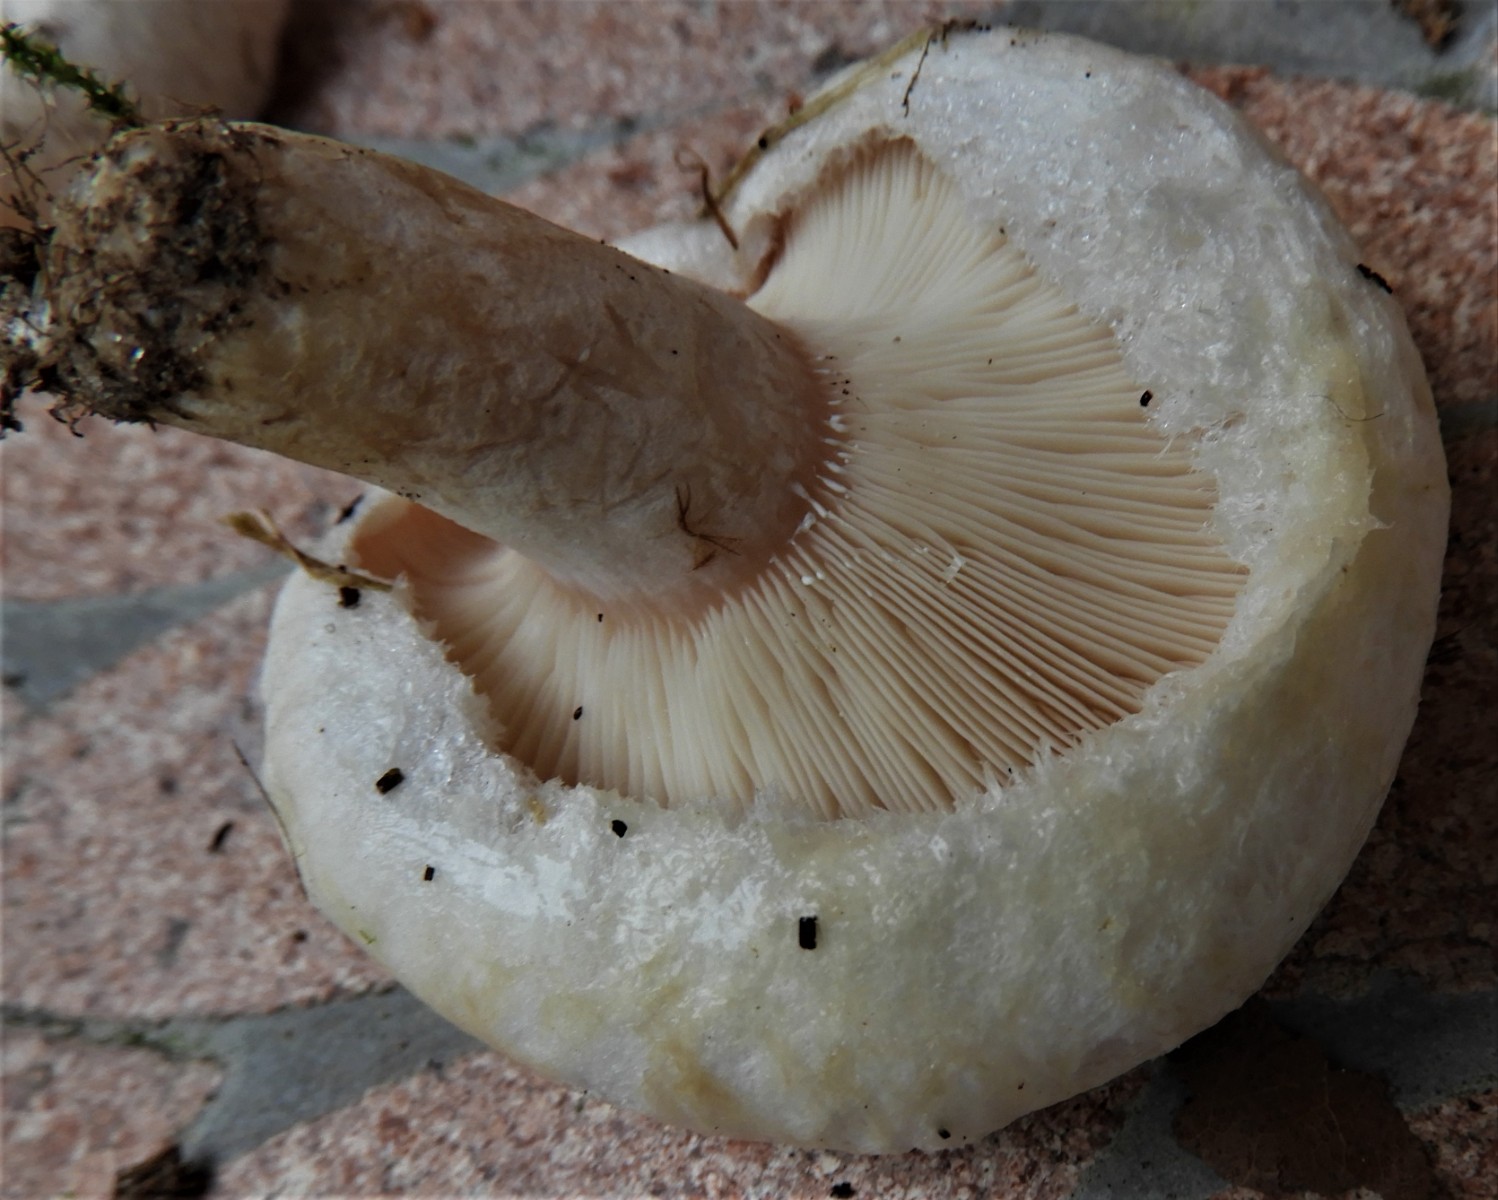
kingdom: Fungi
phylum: Basidiomycota
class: Agaricomycetes
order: Russulales
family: Russulaceae
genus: Lactarius
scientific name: Lactarius pubescens
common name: dunet mælkehat
